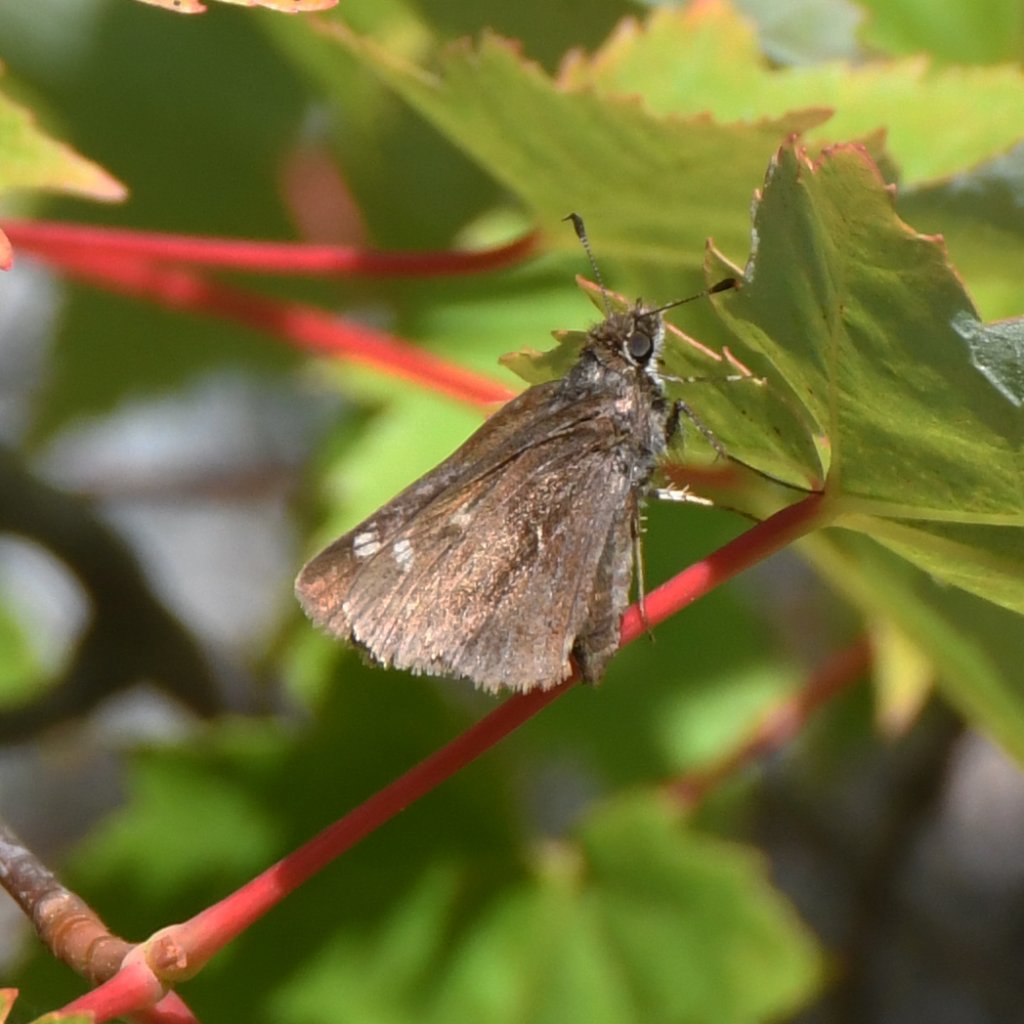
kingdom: Animalia
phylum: Arthropoda
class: Insecta
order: Lepidoptera
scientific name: Lepidoptera
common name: Butterflies
